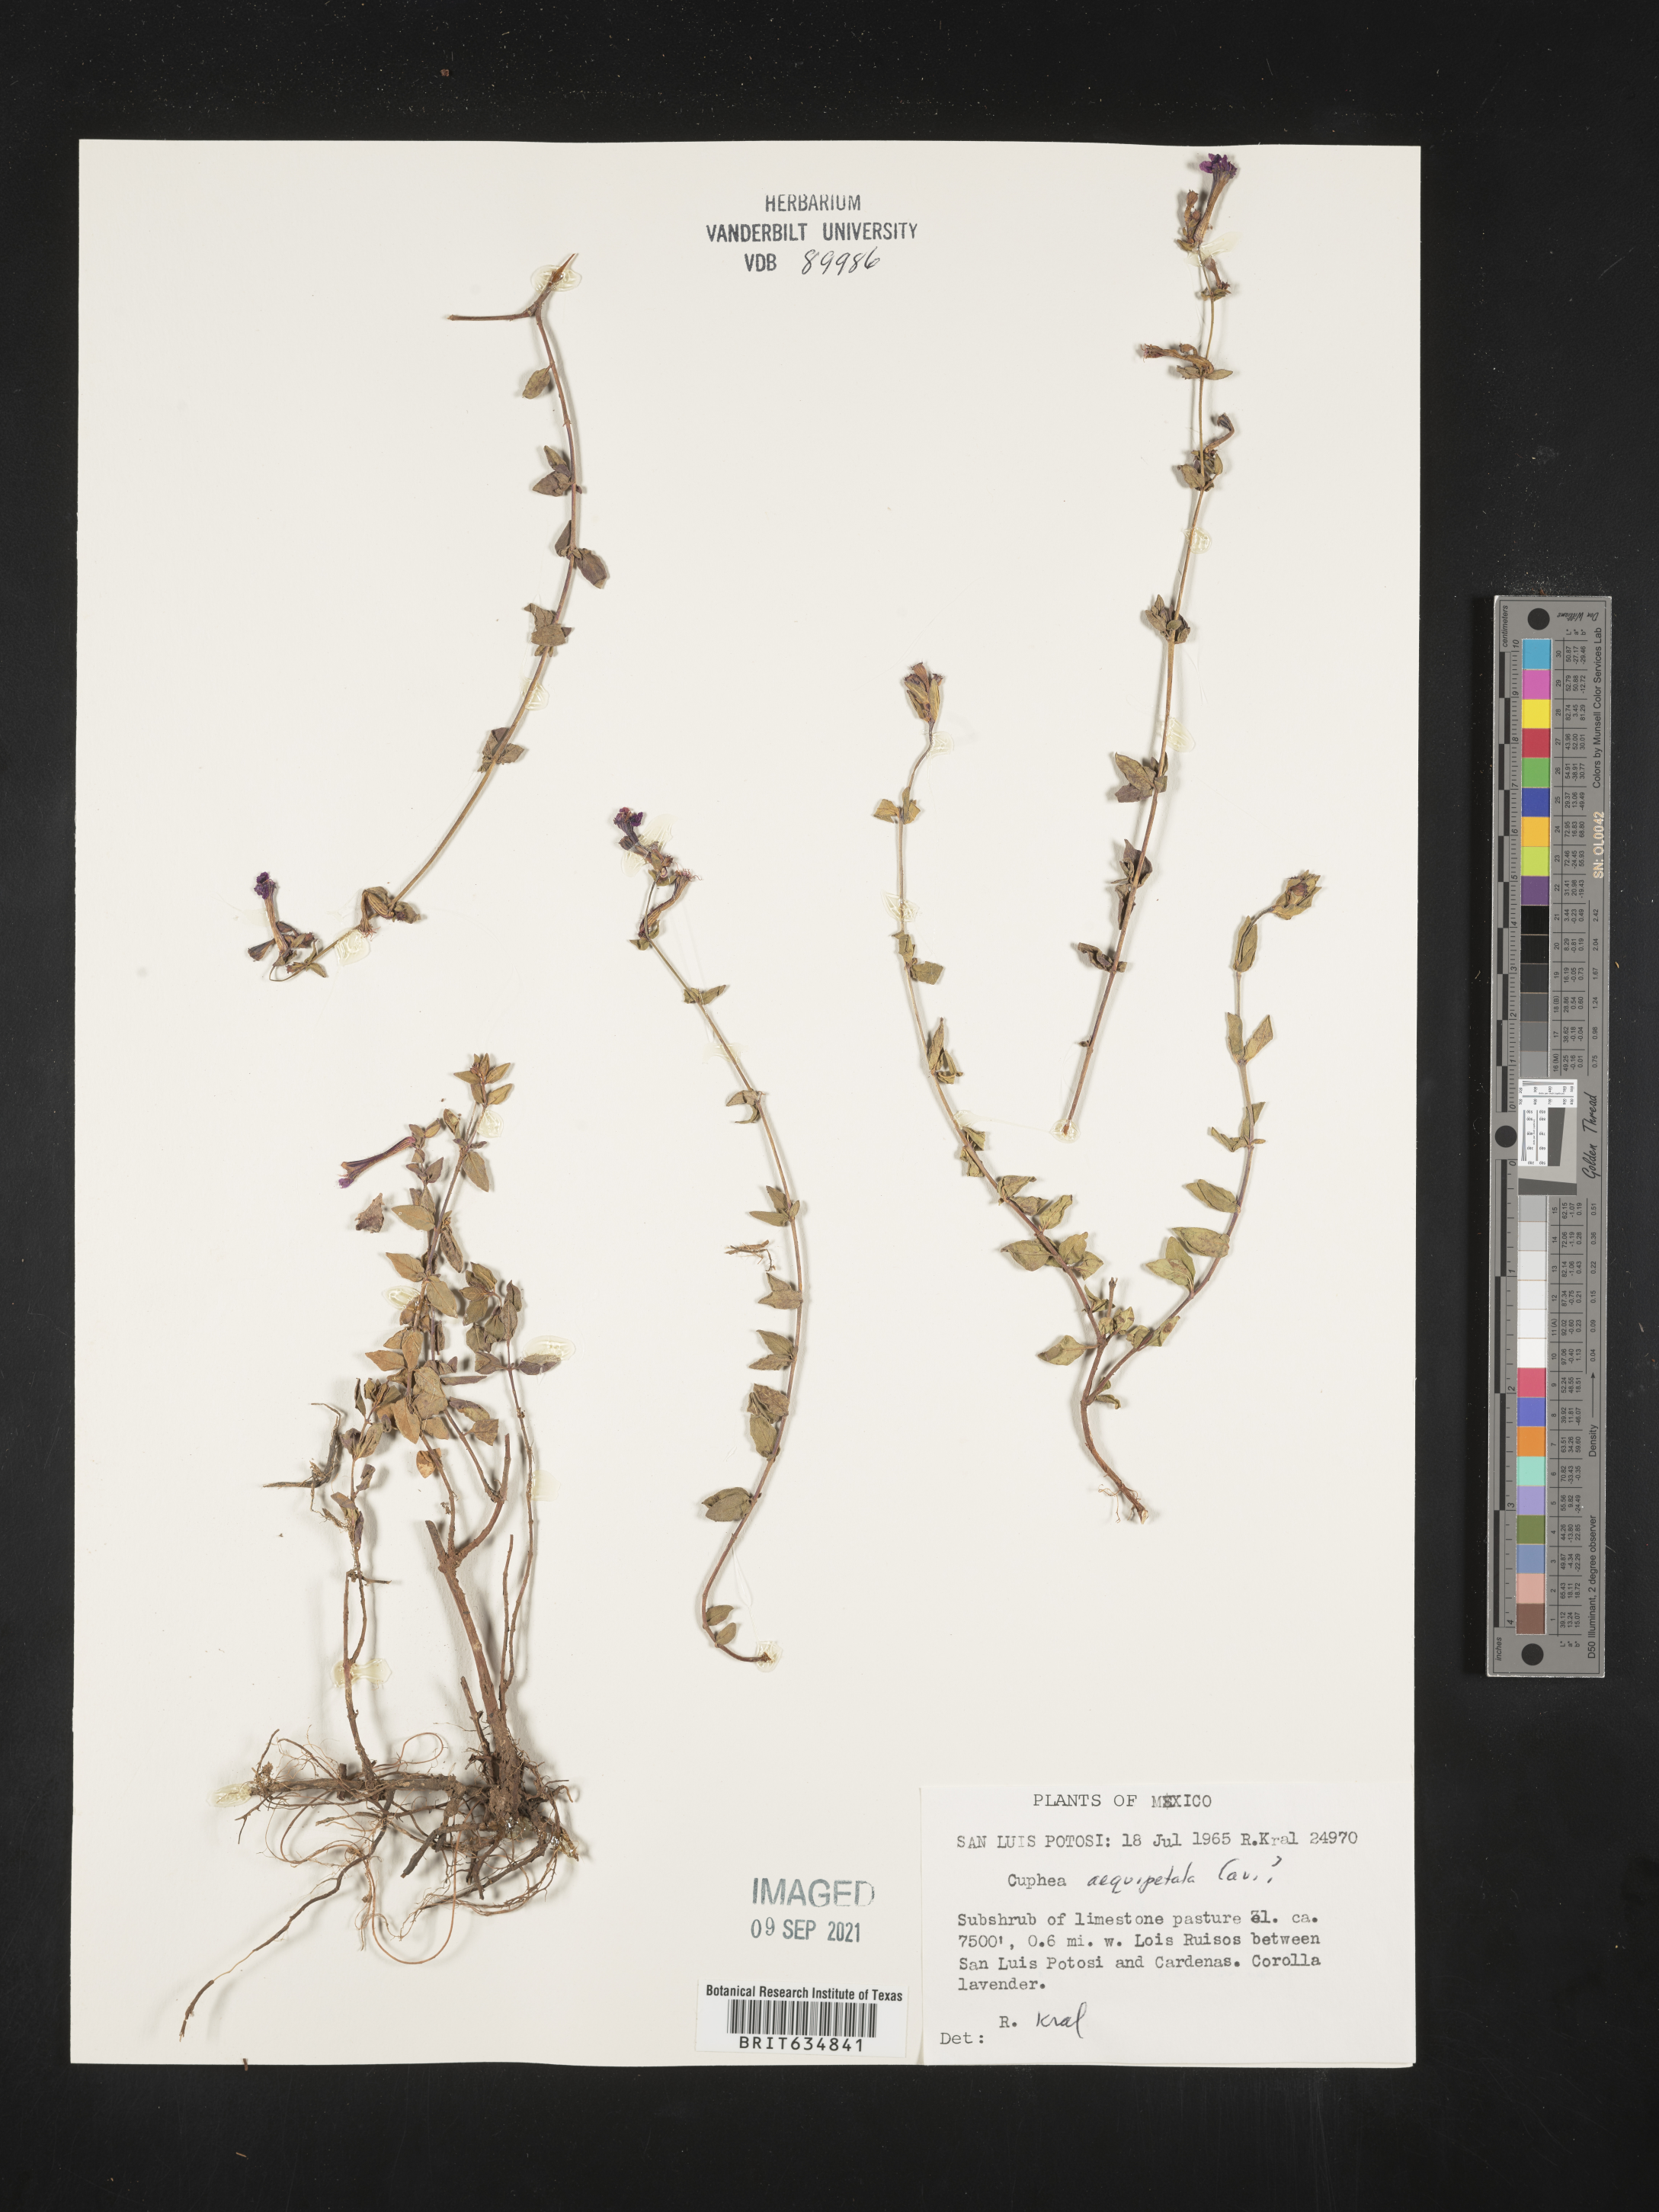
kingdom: Plantae
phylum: Tracheophyta
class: Magnoliopsida
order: Myrtales
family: Lythraceae
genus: Cuphea
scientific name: Cuphea
